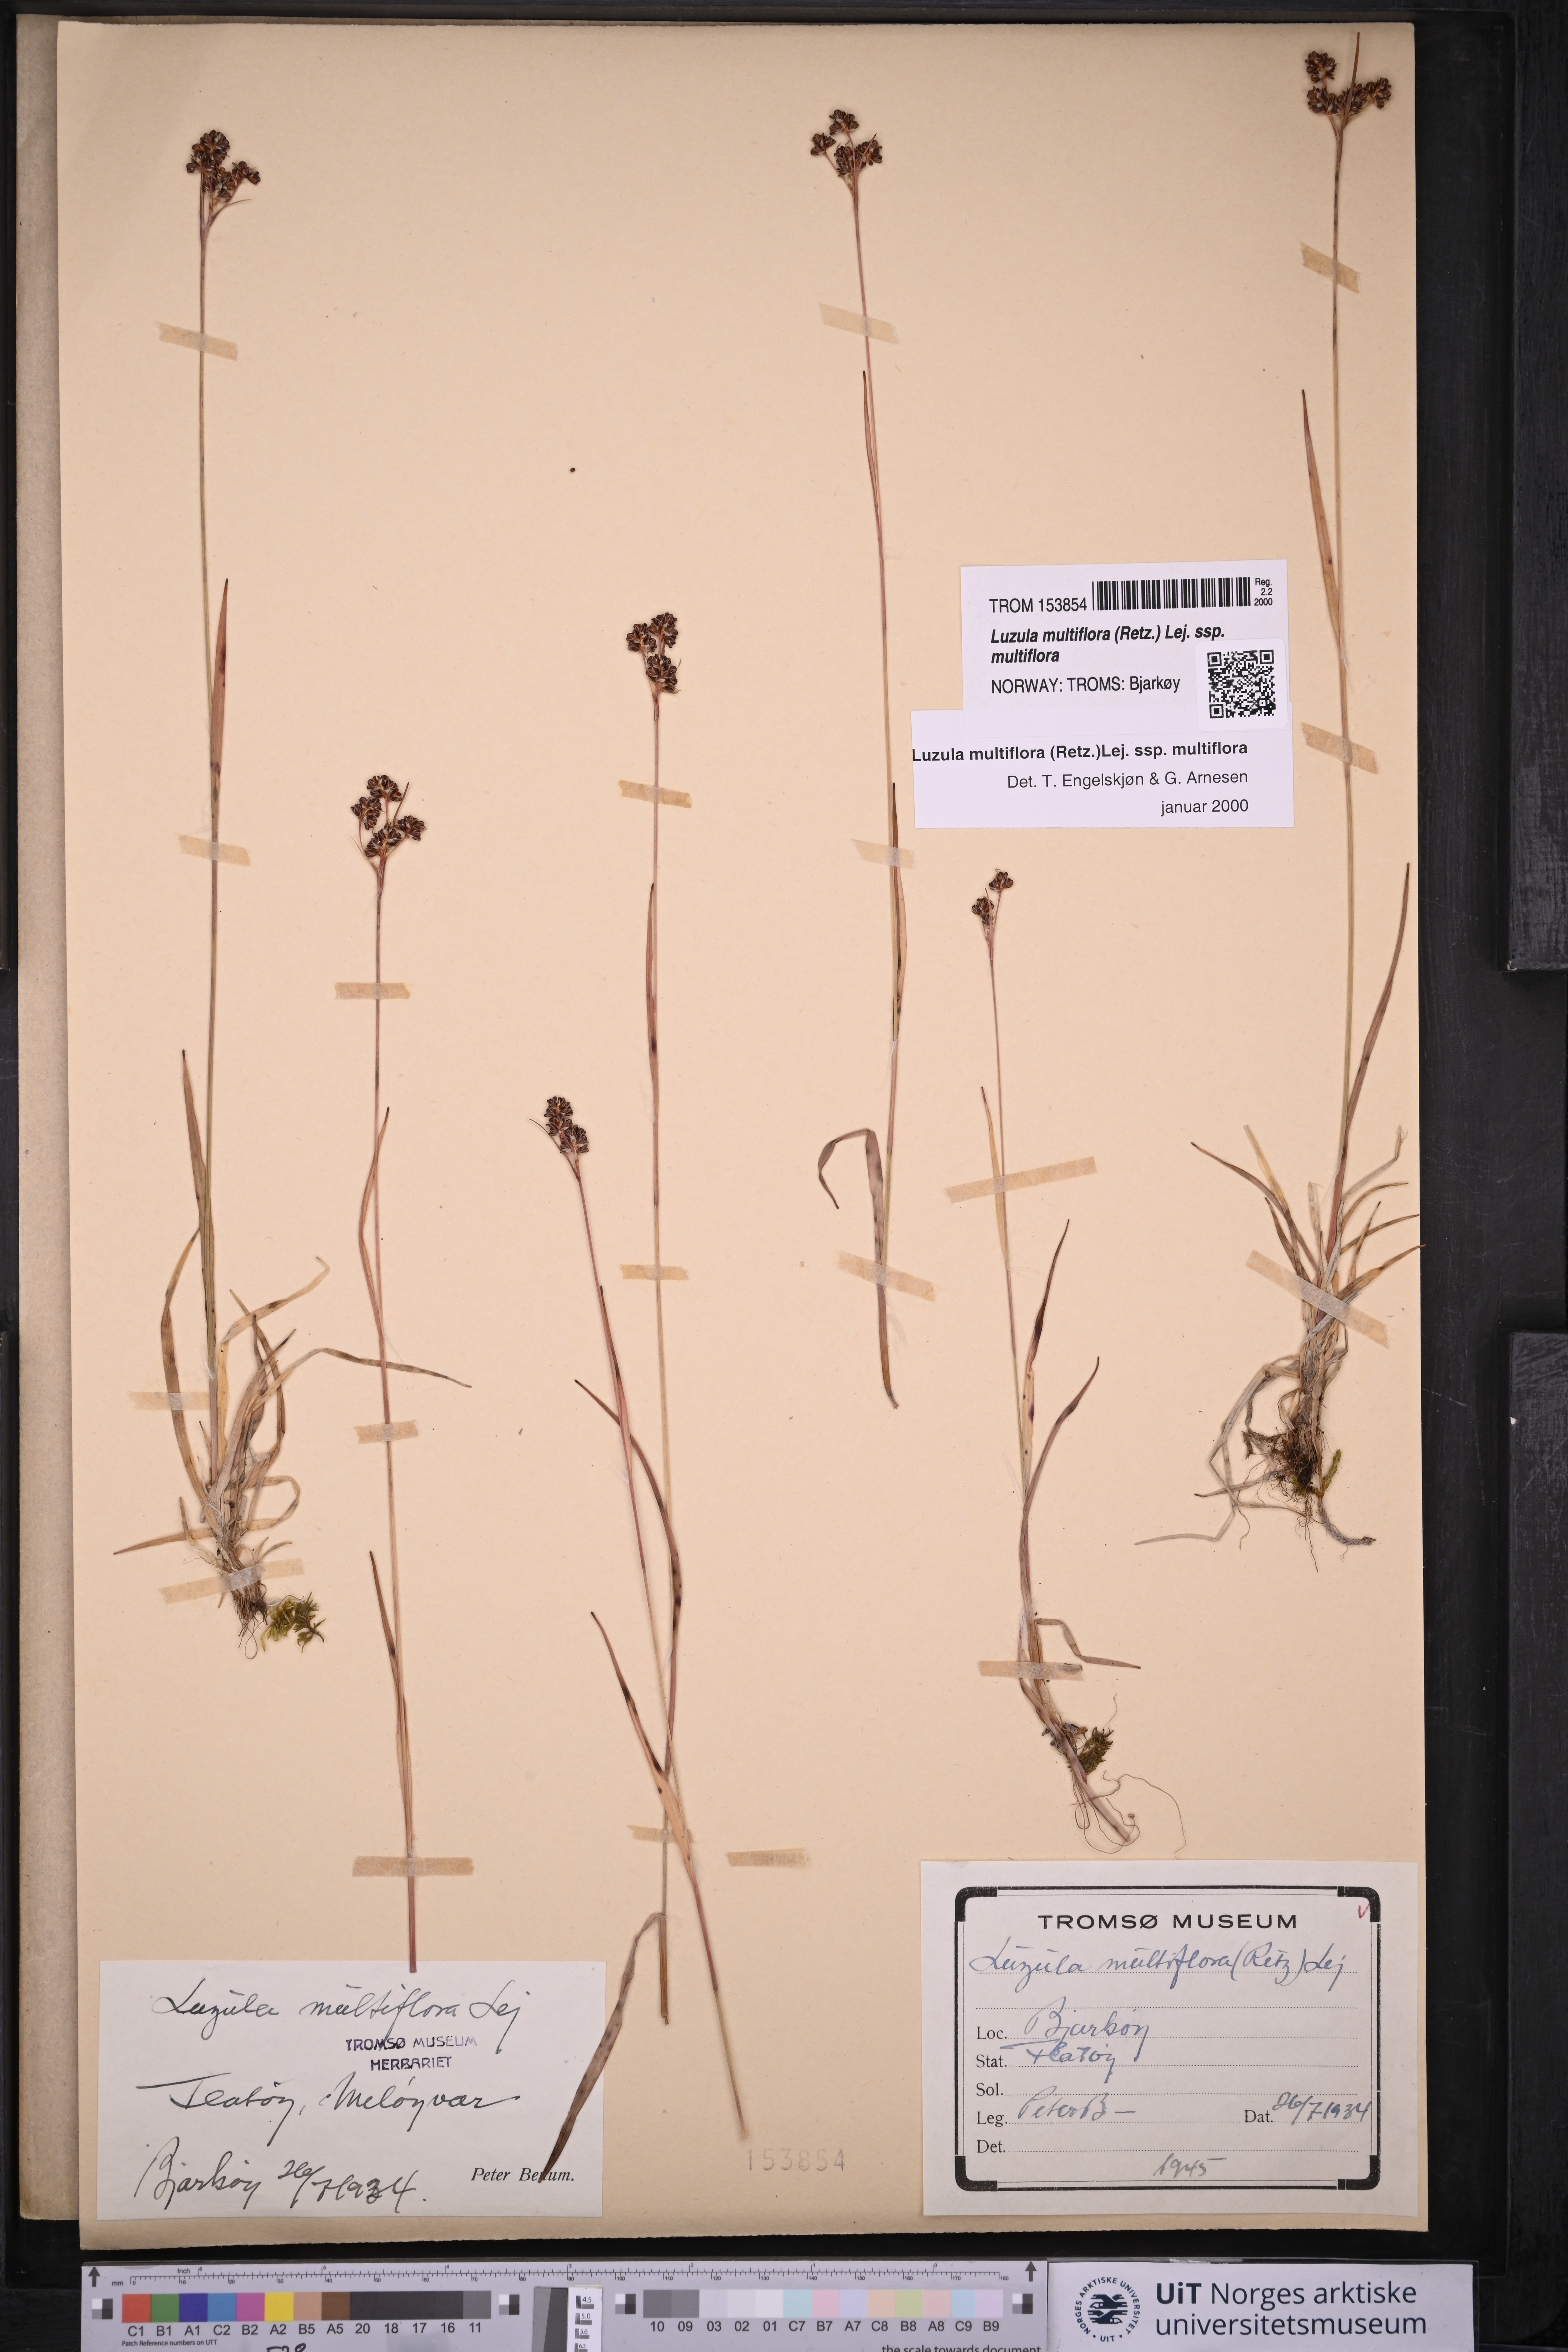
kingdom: Plantae
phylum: Tracheophyta
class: Liliopsida
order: Poales
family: Juncaceae
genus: Luzula
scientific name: Luzula multiflora
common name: Heath wood-rush
